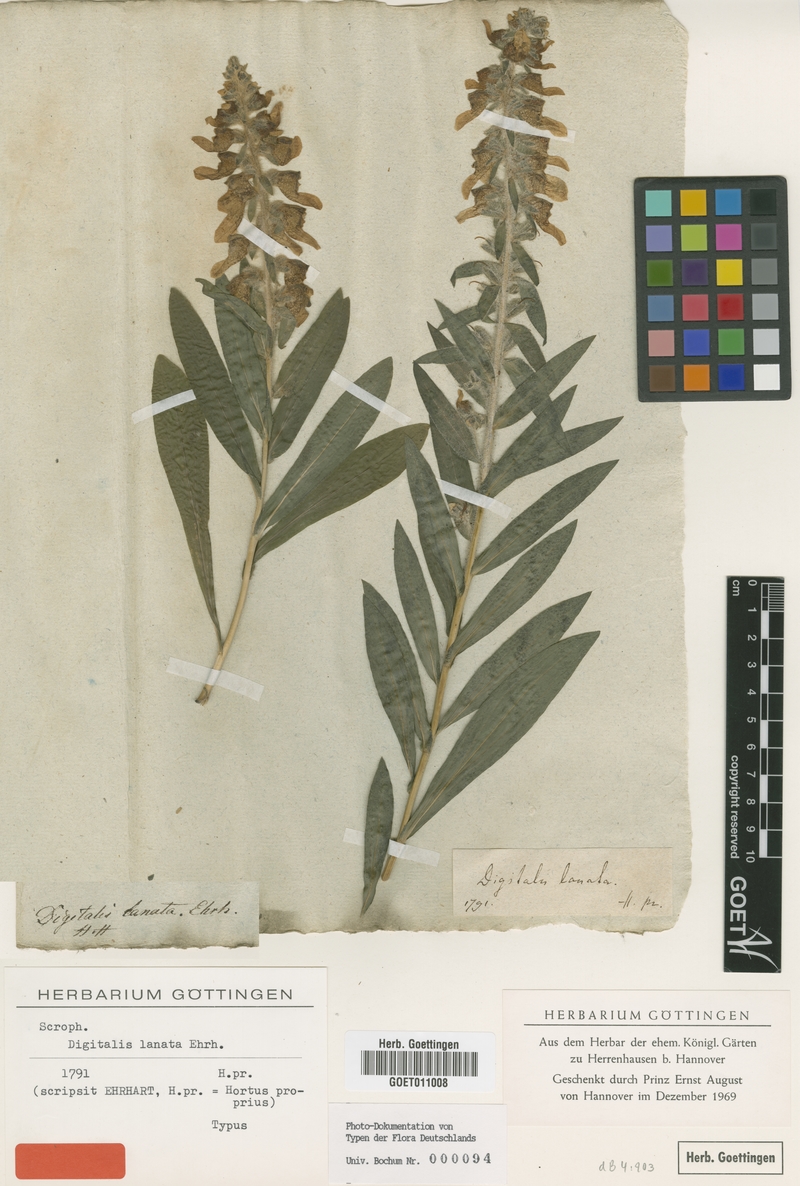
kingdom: Plantae
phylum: Tracheophyta
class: Magnoliopsida
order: Lamiales
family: Plantaginaceae
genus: Digitalis
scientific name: Digitalis lanata
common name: Grecian foxglove
